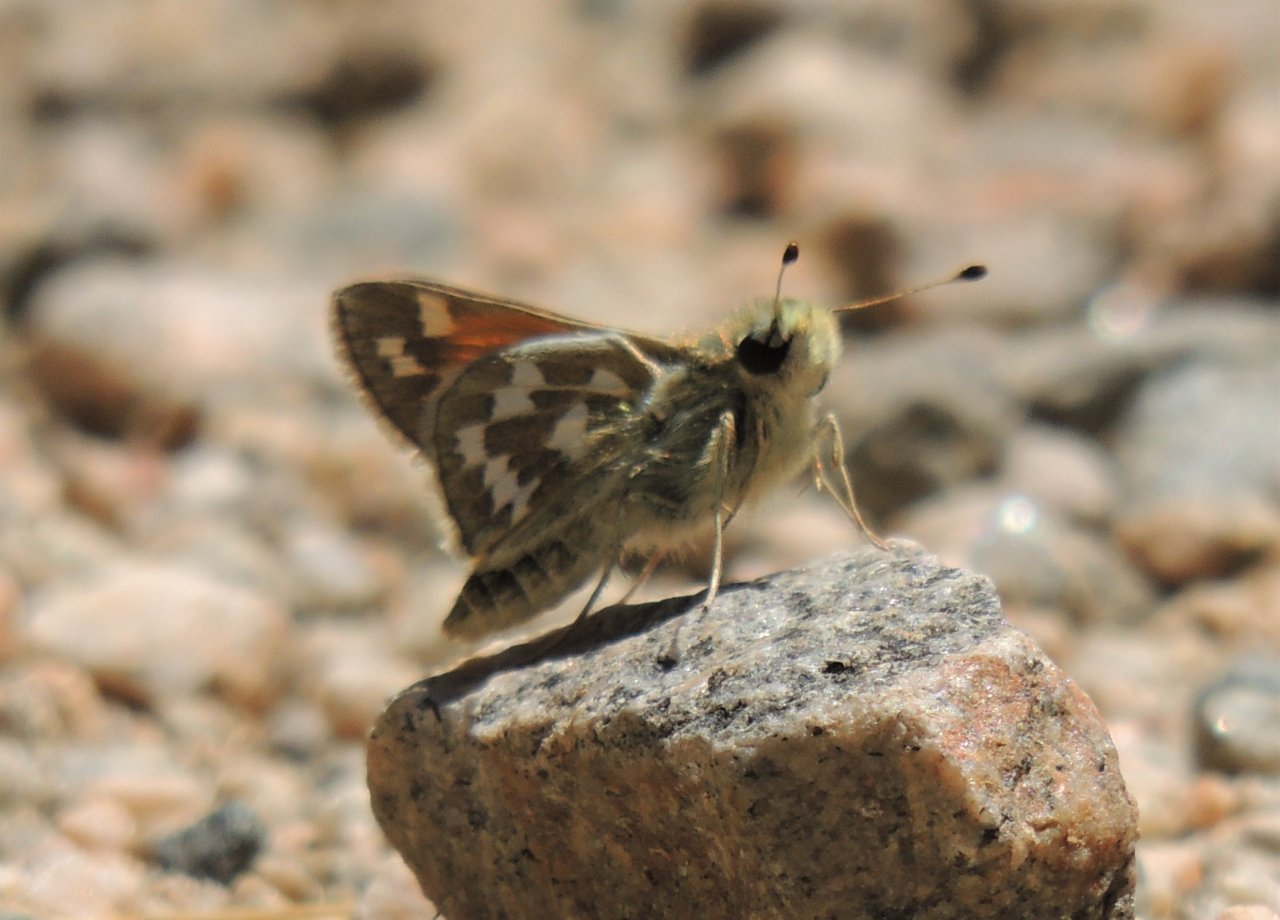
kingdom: Animalia
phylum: Arthropoda
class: Insecta
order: Lepidoptera
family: Hesperiidae
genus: Hesperia
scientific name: Hesperia juba
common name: Juba Skipper
